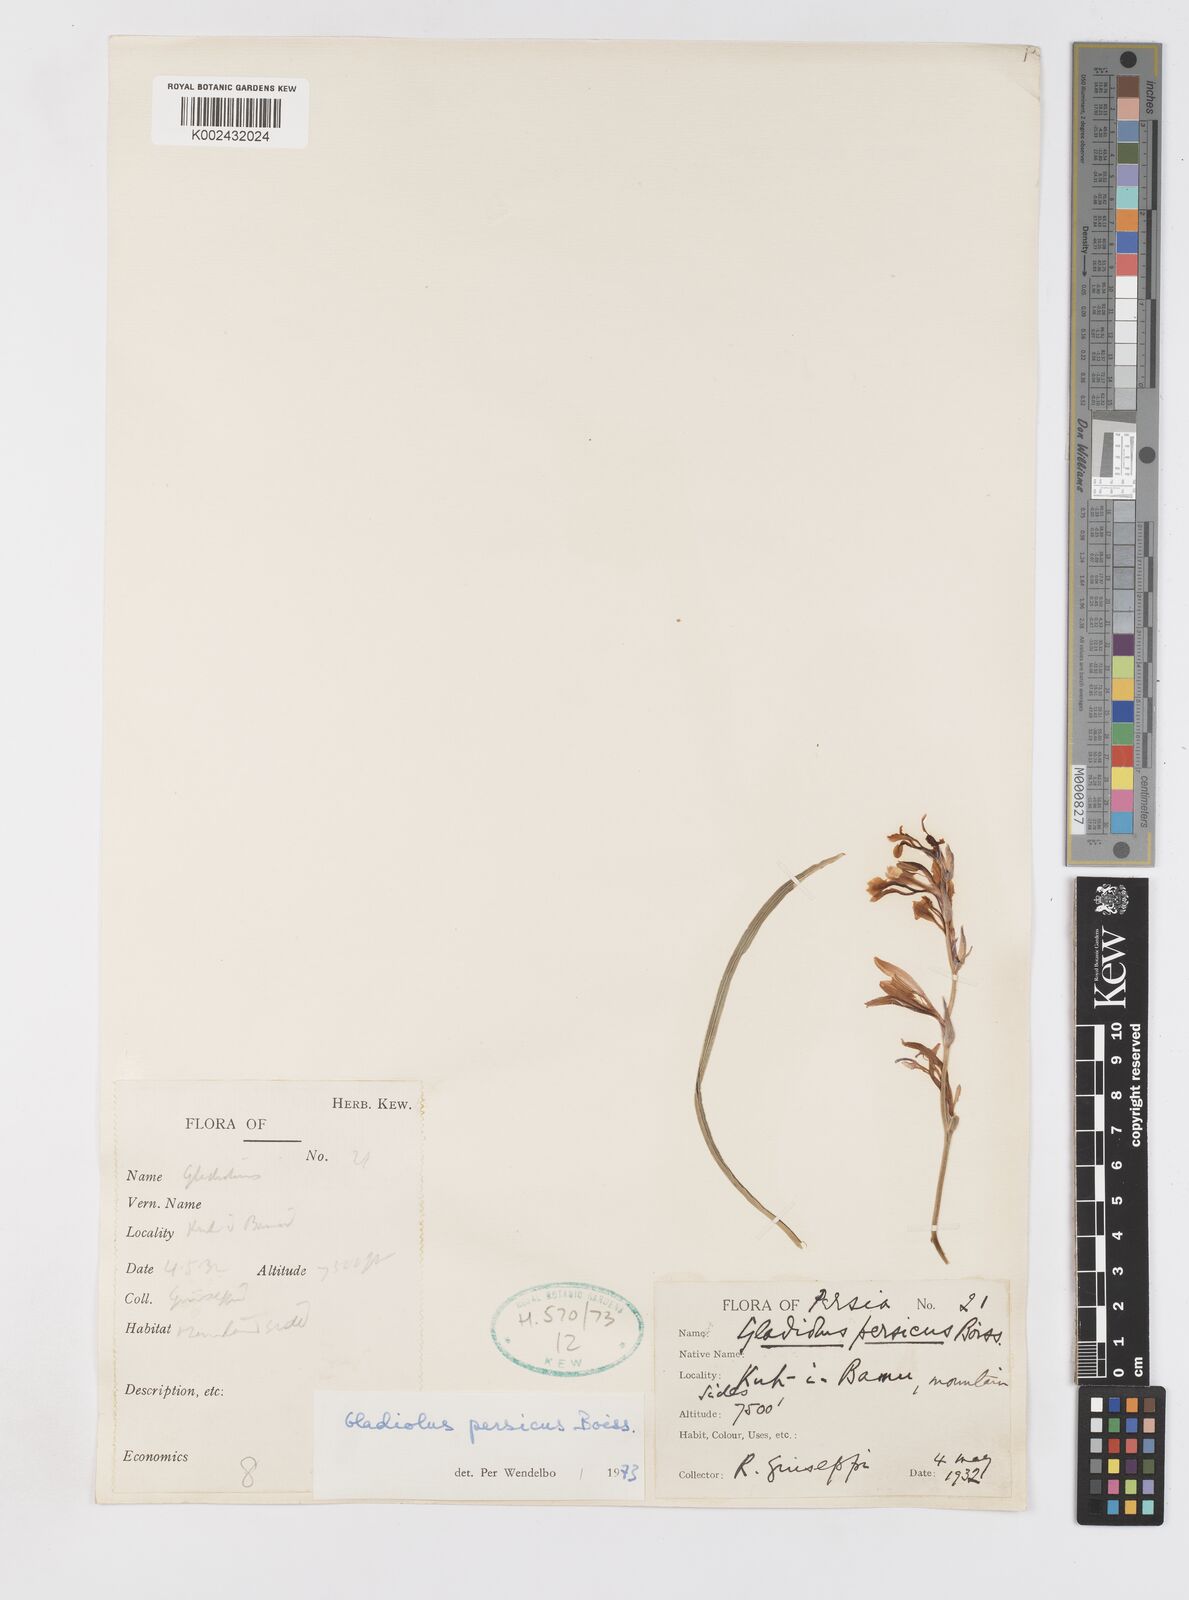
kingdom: Plantae
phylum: Tracheophyta
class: Liliopsida
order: Asparagales
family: Iridaceae
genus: Gladiolus
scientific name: Gladiolus persicus
